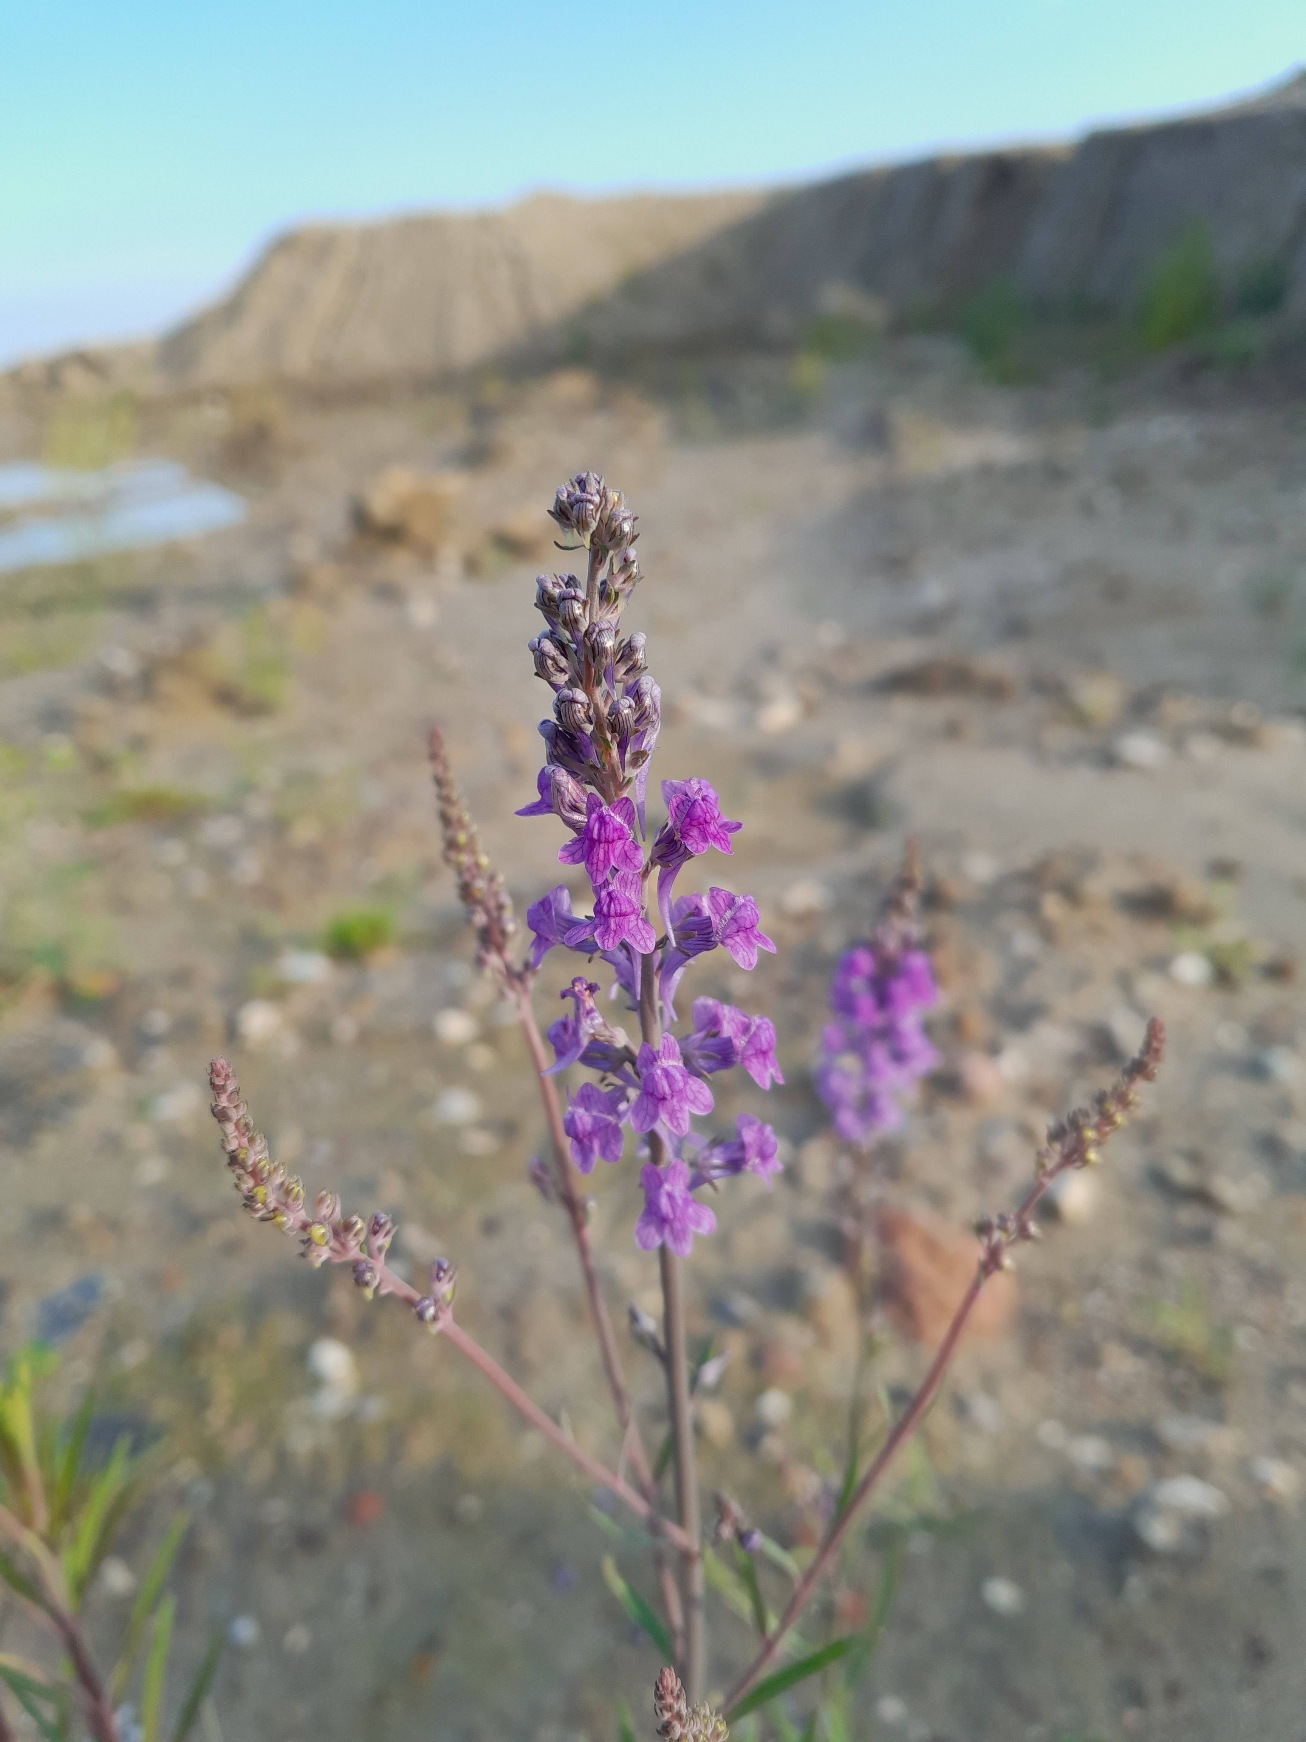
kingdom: Plantae
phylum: Tracheophyta
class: Magnoliopsida
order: Lamiales
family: Plantaginaceae
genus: Linaria
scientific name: Linaria purpurea
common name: Purpur-torskemund
